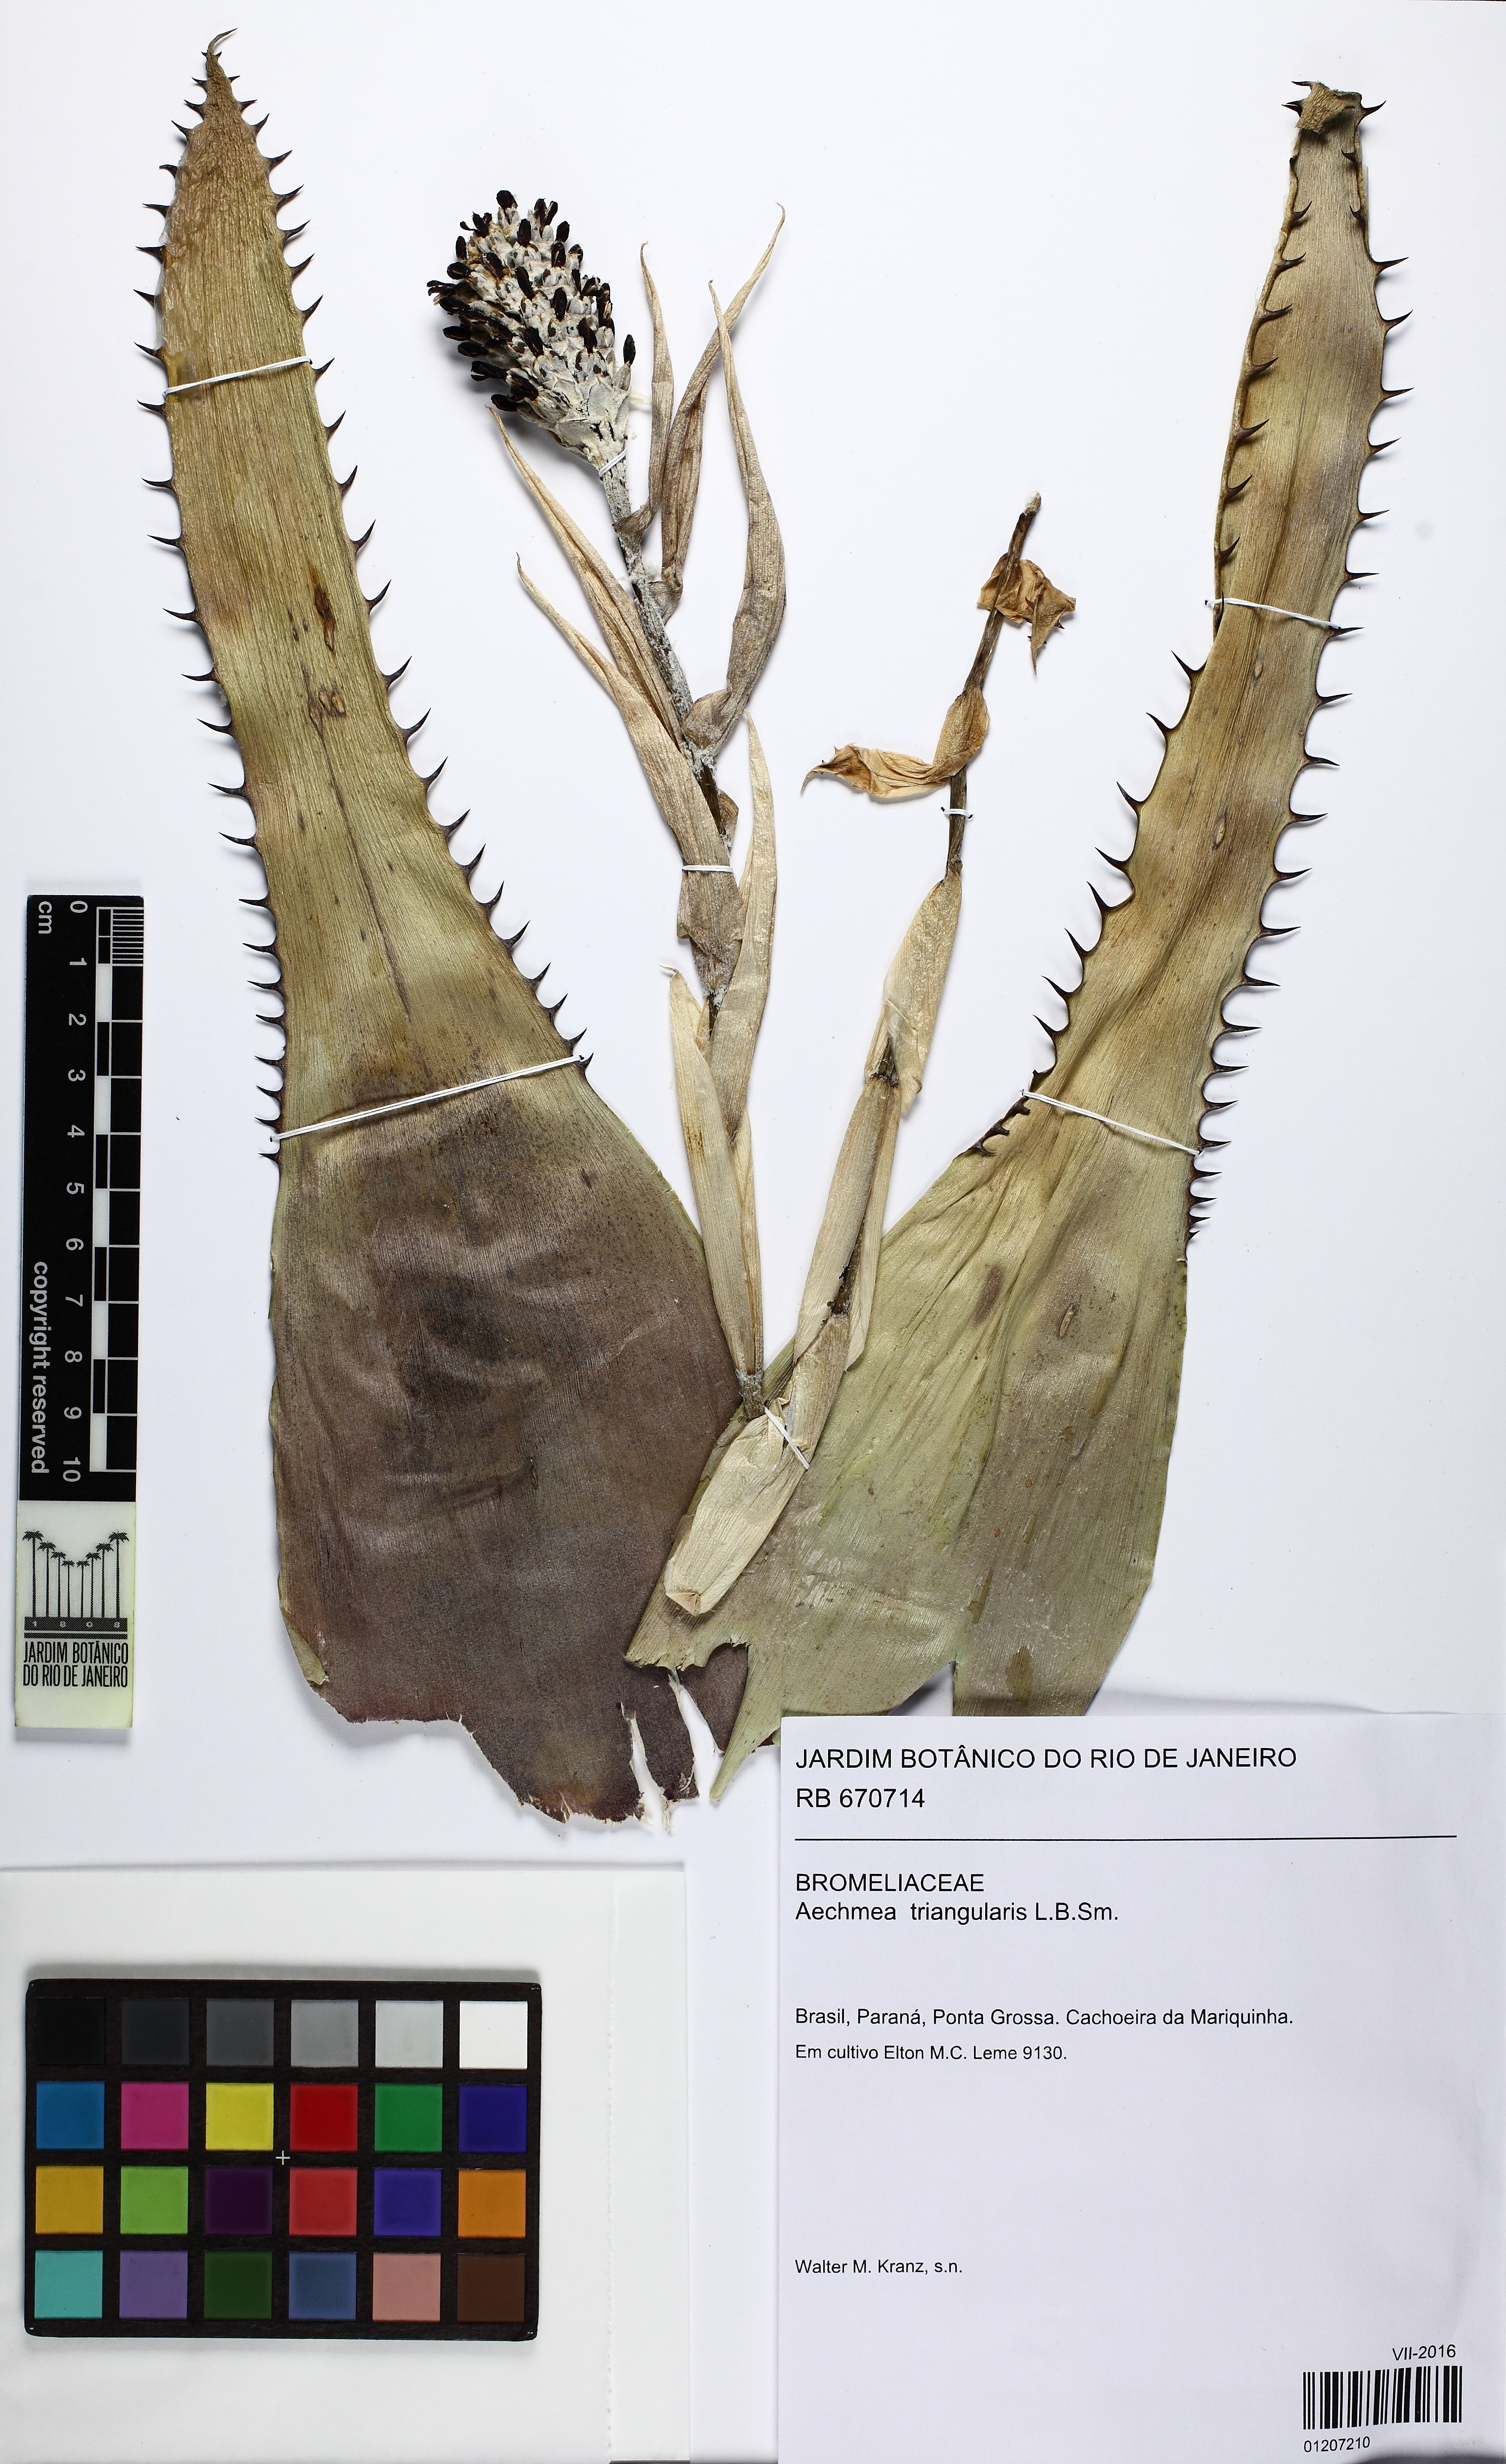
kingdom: Plantae
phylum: Tracheophyta
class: Liliopsida
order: Poales
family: Bromeliaceae
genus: Aechmea
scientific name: Aechmea triangularis
